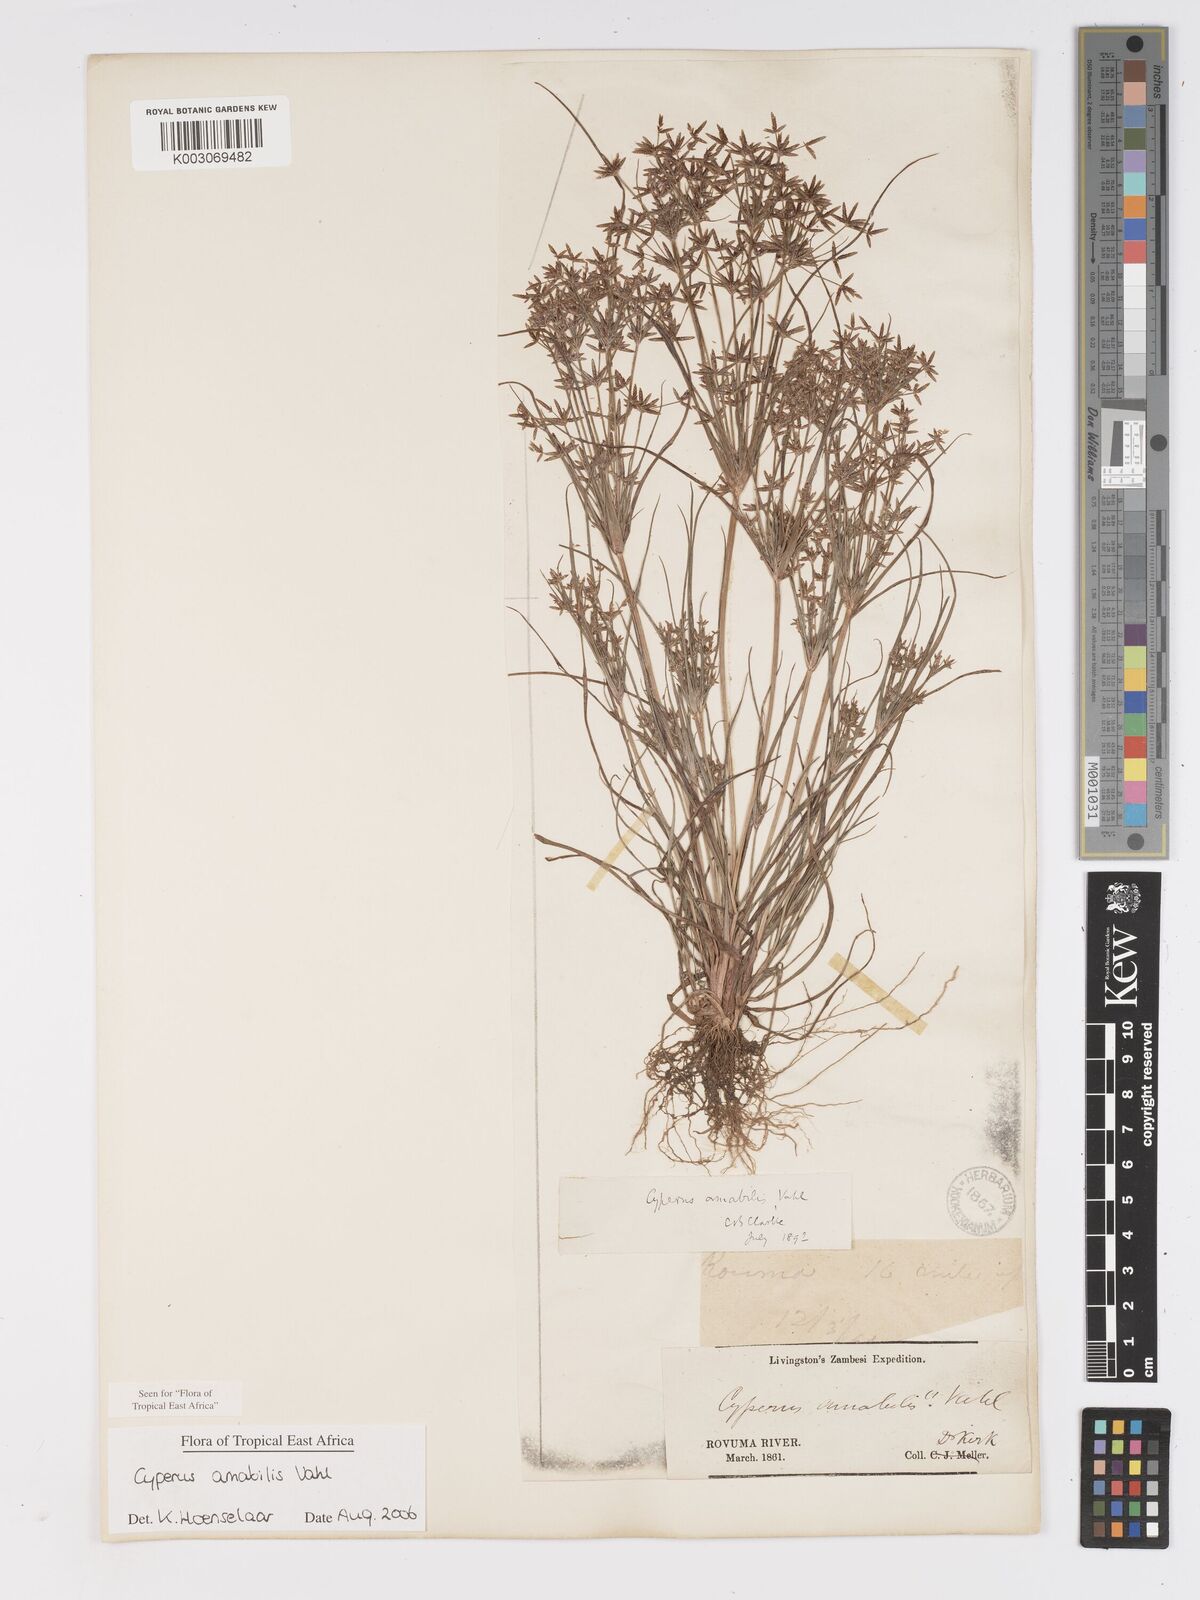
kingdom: Plantae
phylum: Tracheophyta
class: Liliopsida
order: Poales
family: Cyperaceae
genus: Cyperus
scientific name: Cyperus amabilis
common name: Foothill flat sedge
